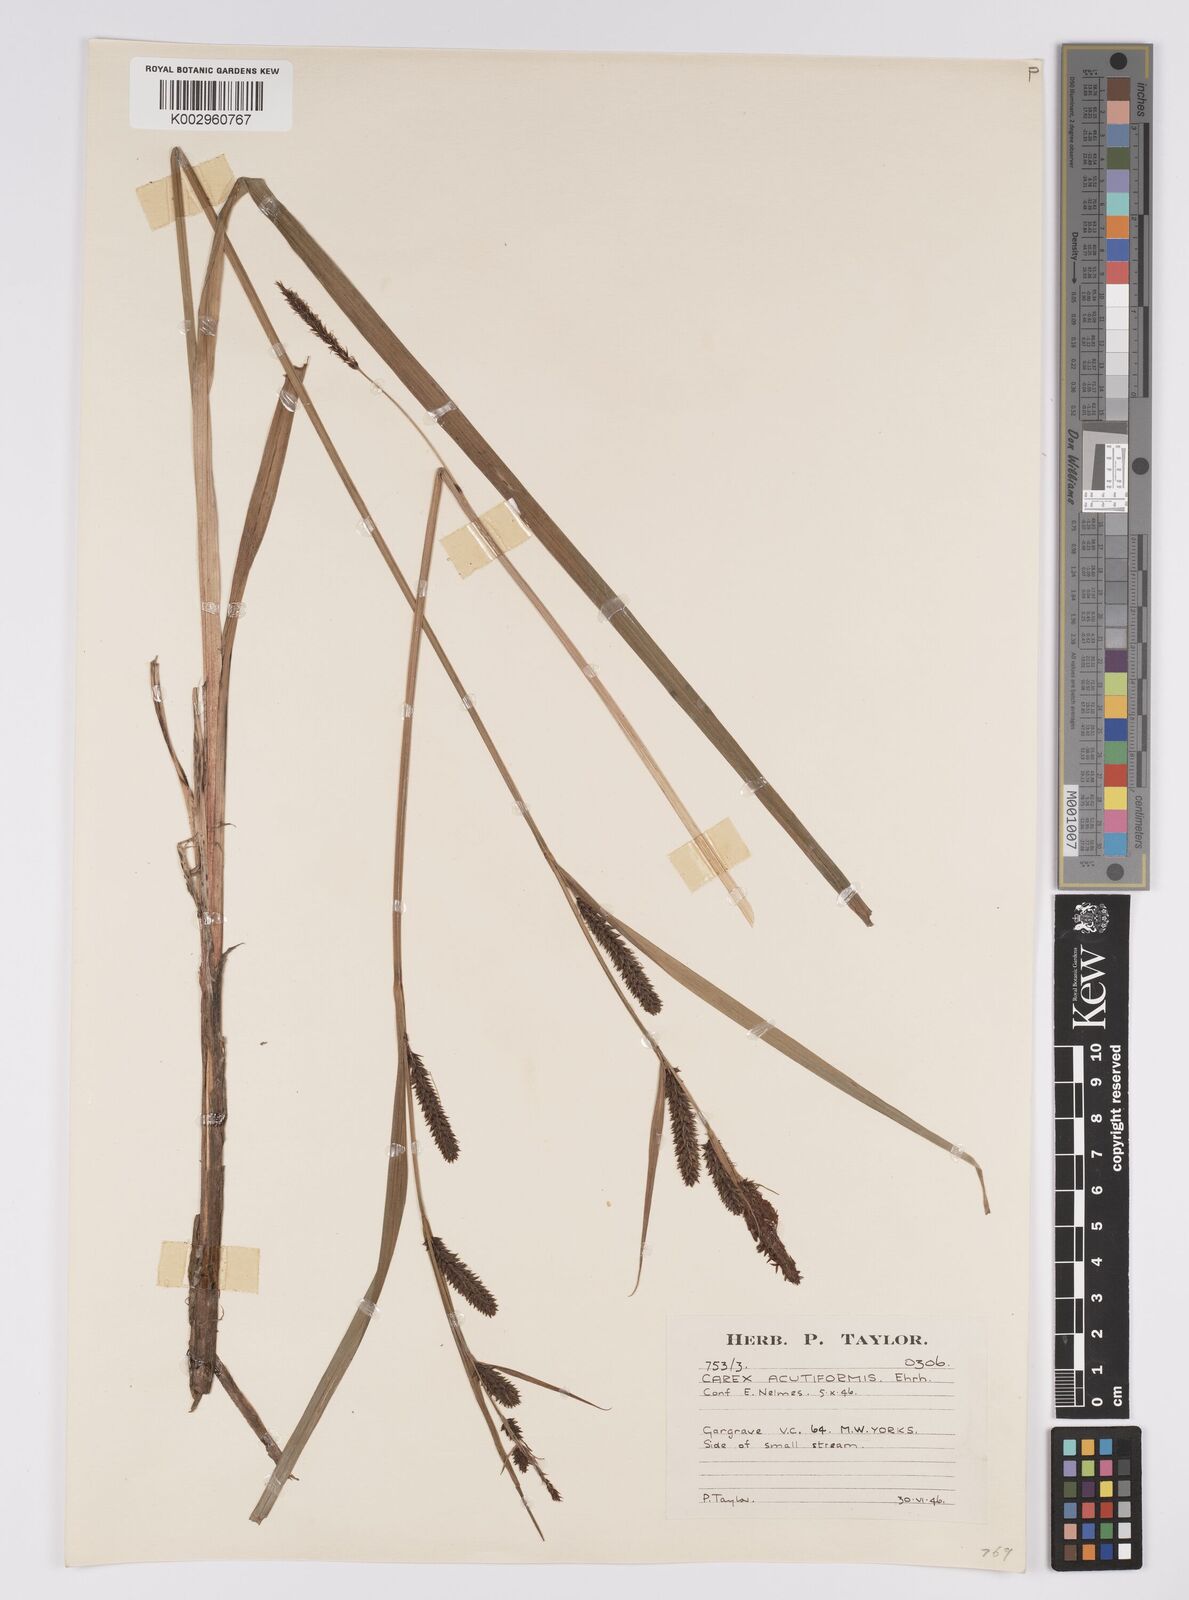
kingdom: Plantae
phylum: Tracheophyta
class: Liliopsida
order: Poales
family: Cyperaceae
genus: Carex
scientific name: Carex acutiformis
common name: Lesser pond-sedge
